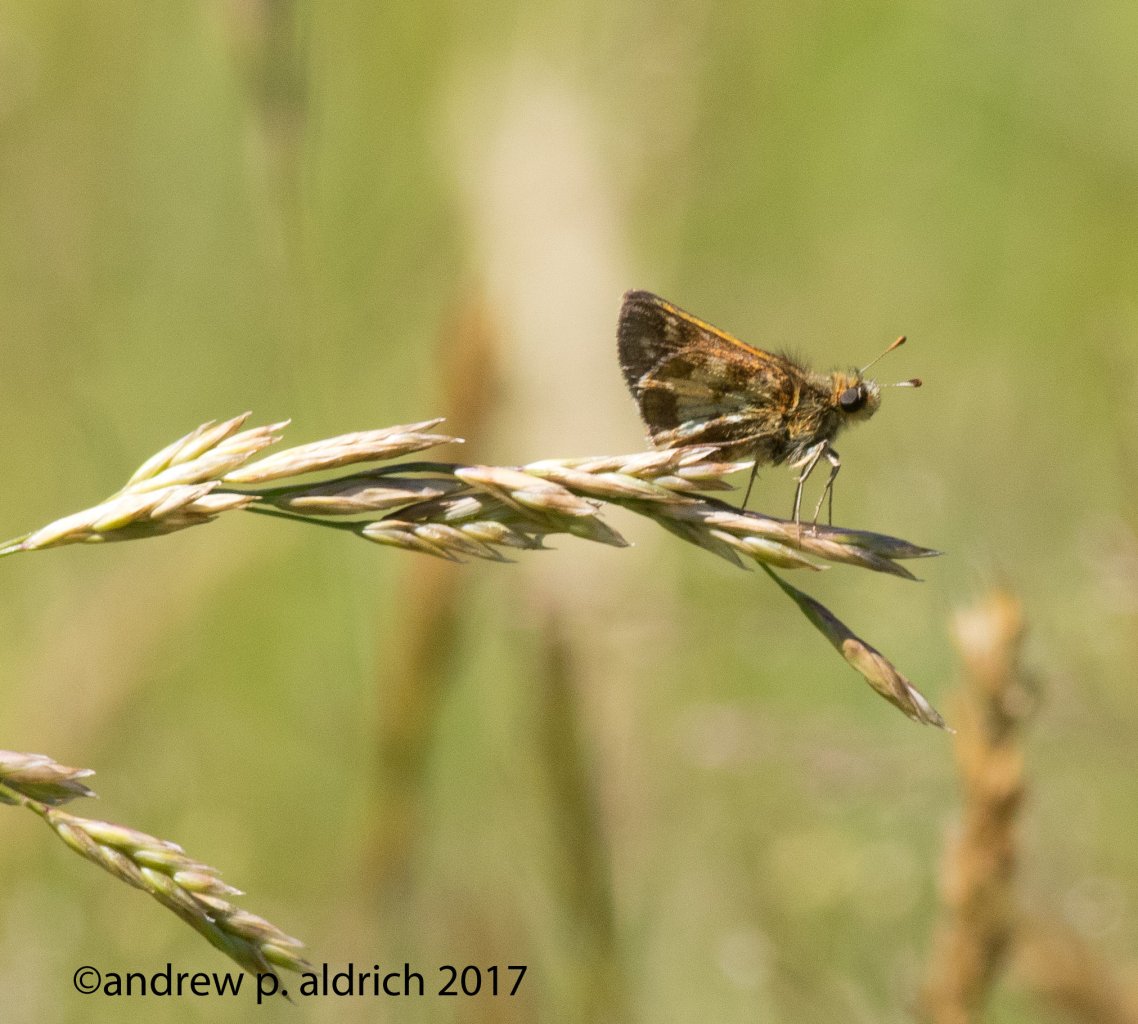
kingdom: Animalia
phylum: Arthropoda
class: Insecta
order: Lepidoptera
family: Hesperiidae
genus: Polites
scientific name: Polites coras
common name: Peck's Skipper
